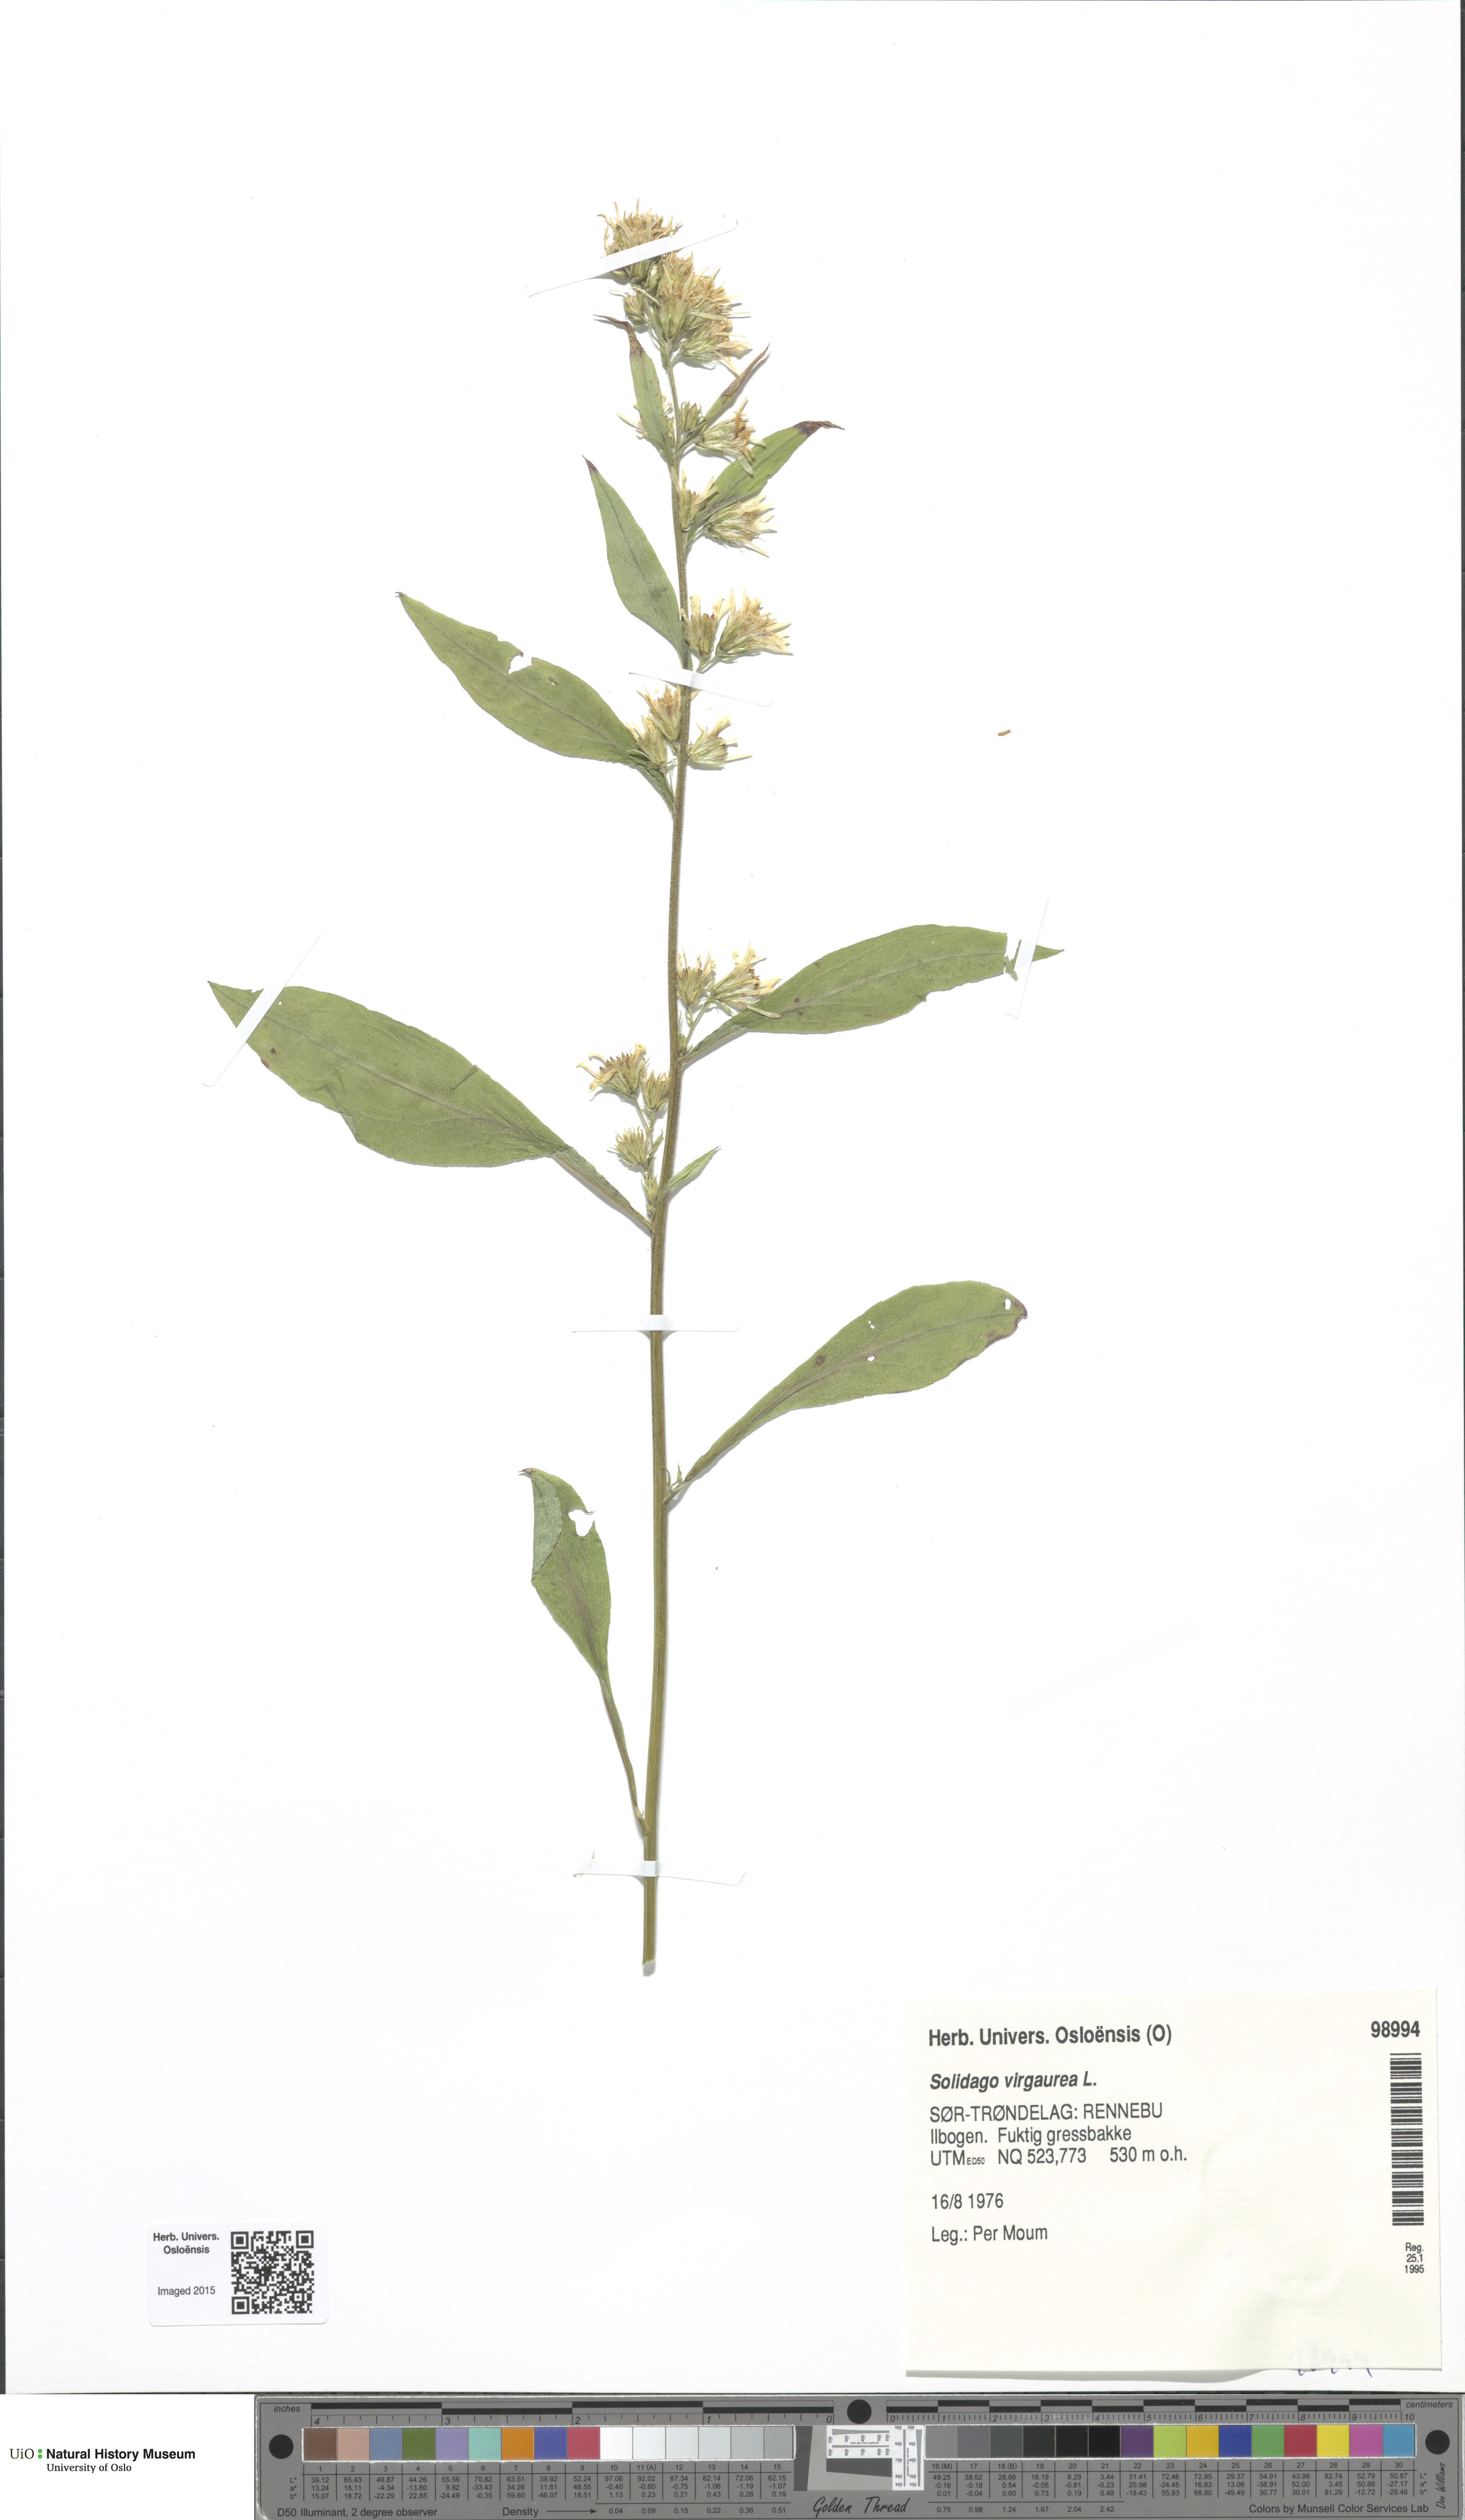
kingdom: Plantae
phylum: Tracheophyta
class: Magnoliopsida
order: Asterales
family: Asteraceae
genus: Solidago
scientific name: Solidago virgaurea
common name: Goldenrod
